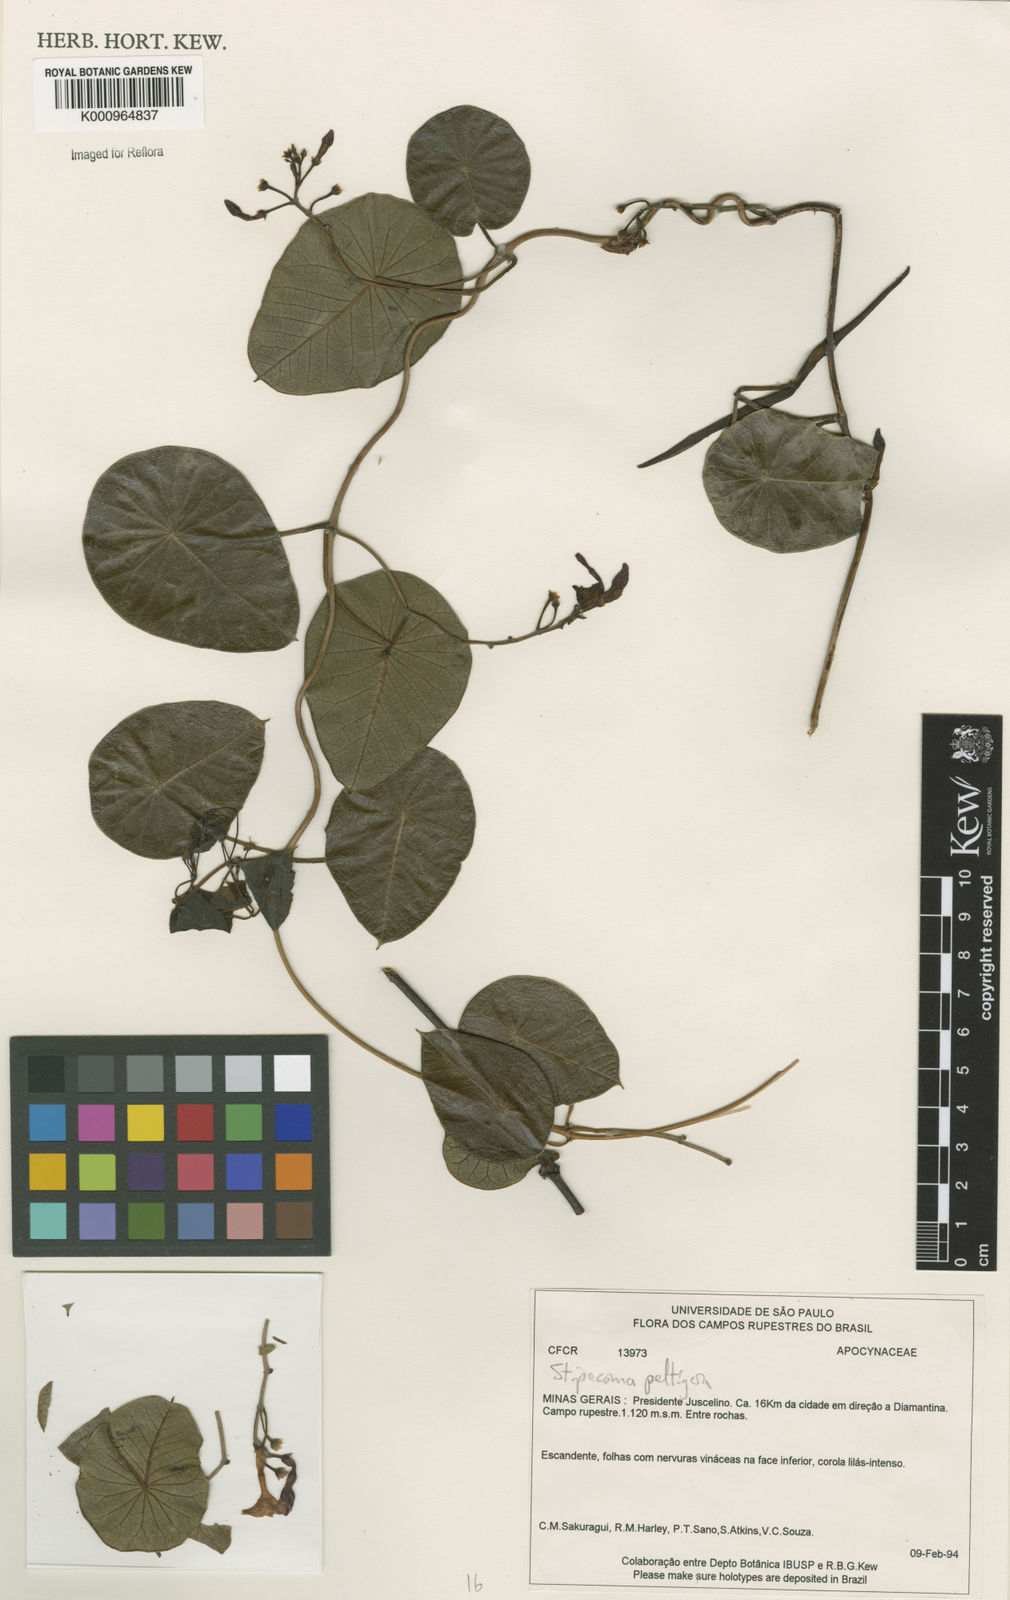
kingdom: Plantae
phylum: Tracheophyta
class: Magnoliopsida
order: Gentianales
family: Apocynaceae
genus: Stipecoma
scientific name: Stipecoma
